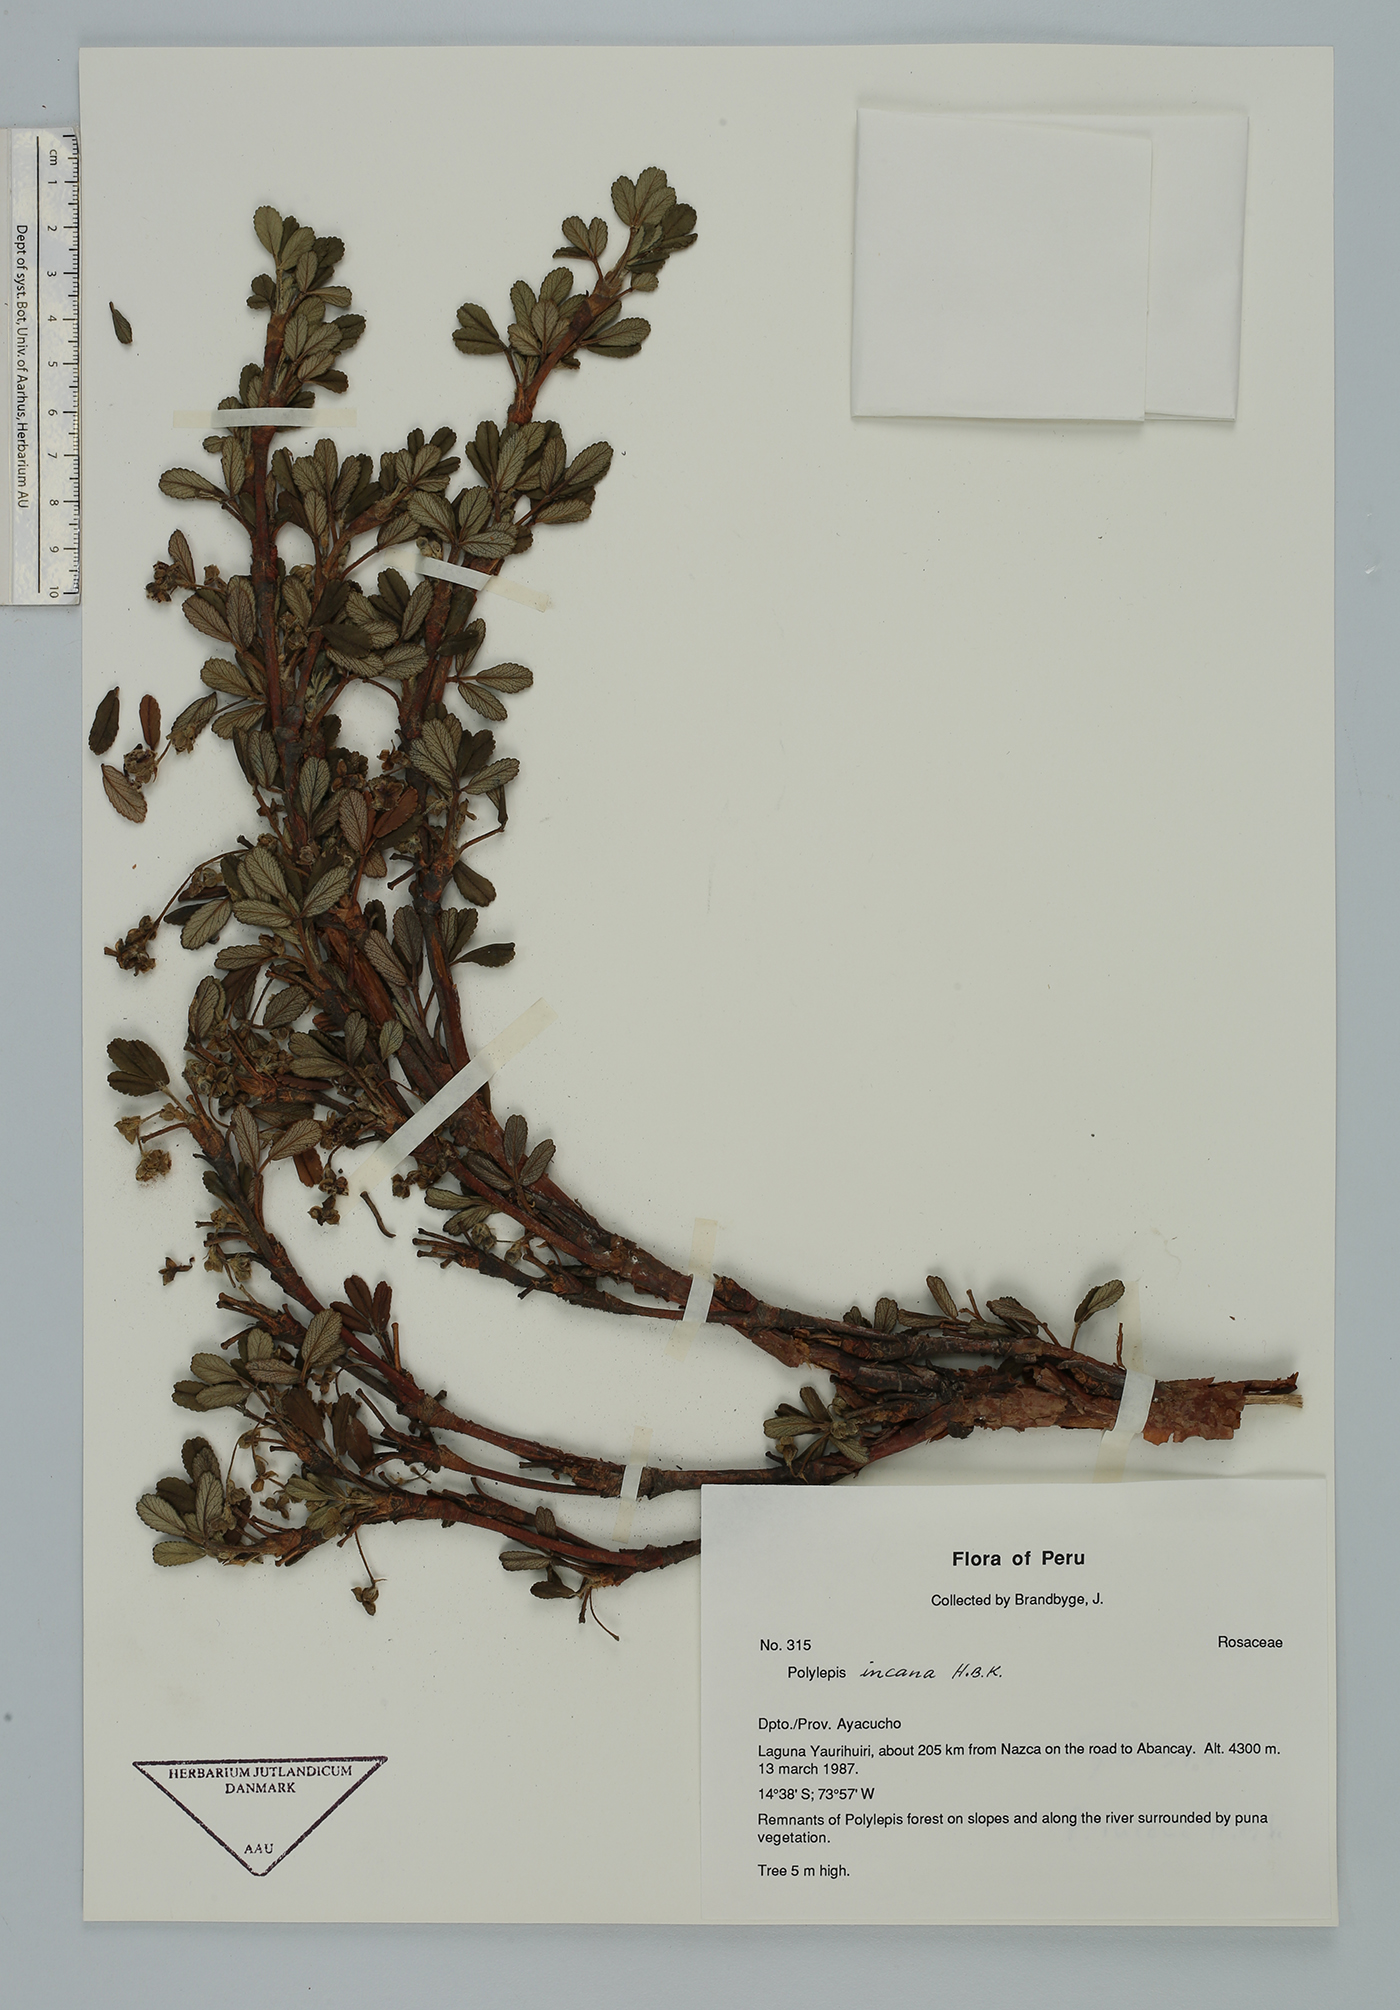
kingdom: Plantae
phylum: Tracheophyta
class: Magnoliopsida
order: Rosales
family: Rosaceae
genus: Polylepis
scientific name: Polylepis tomentella
